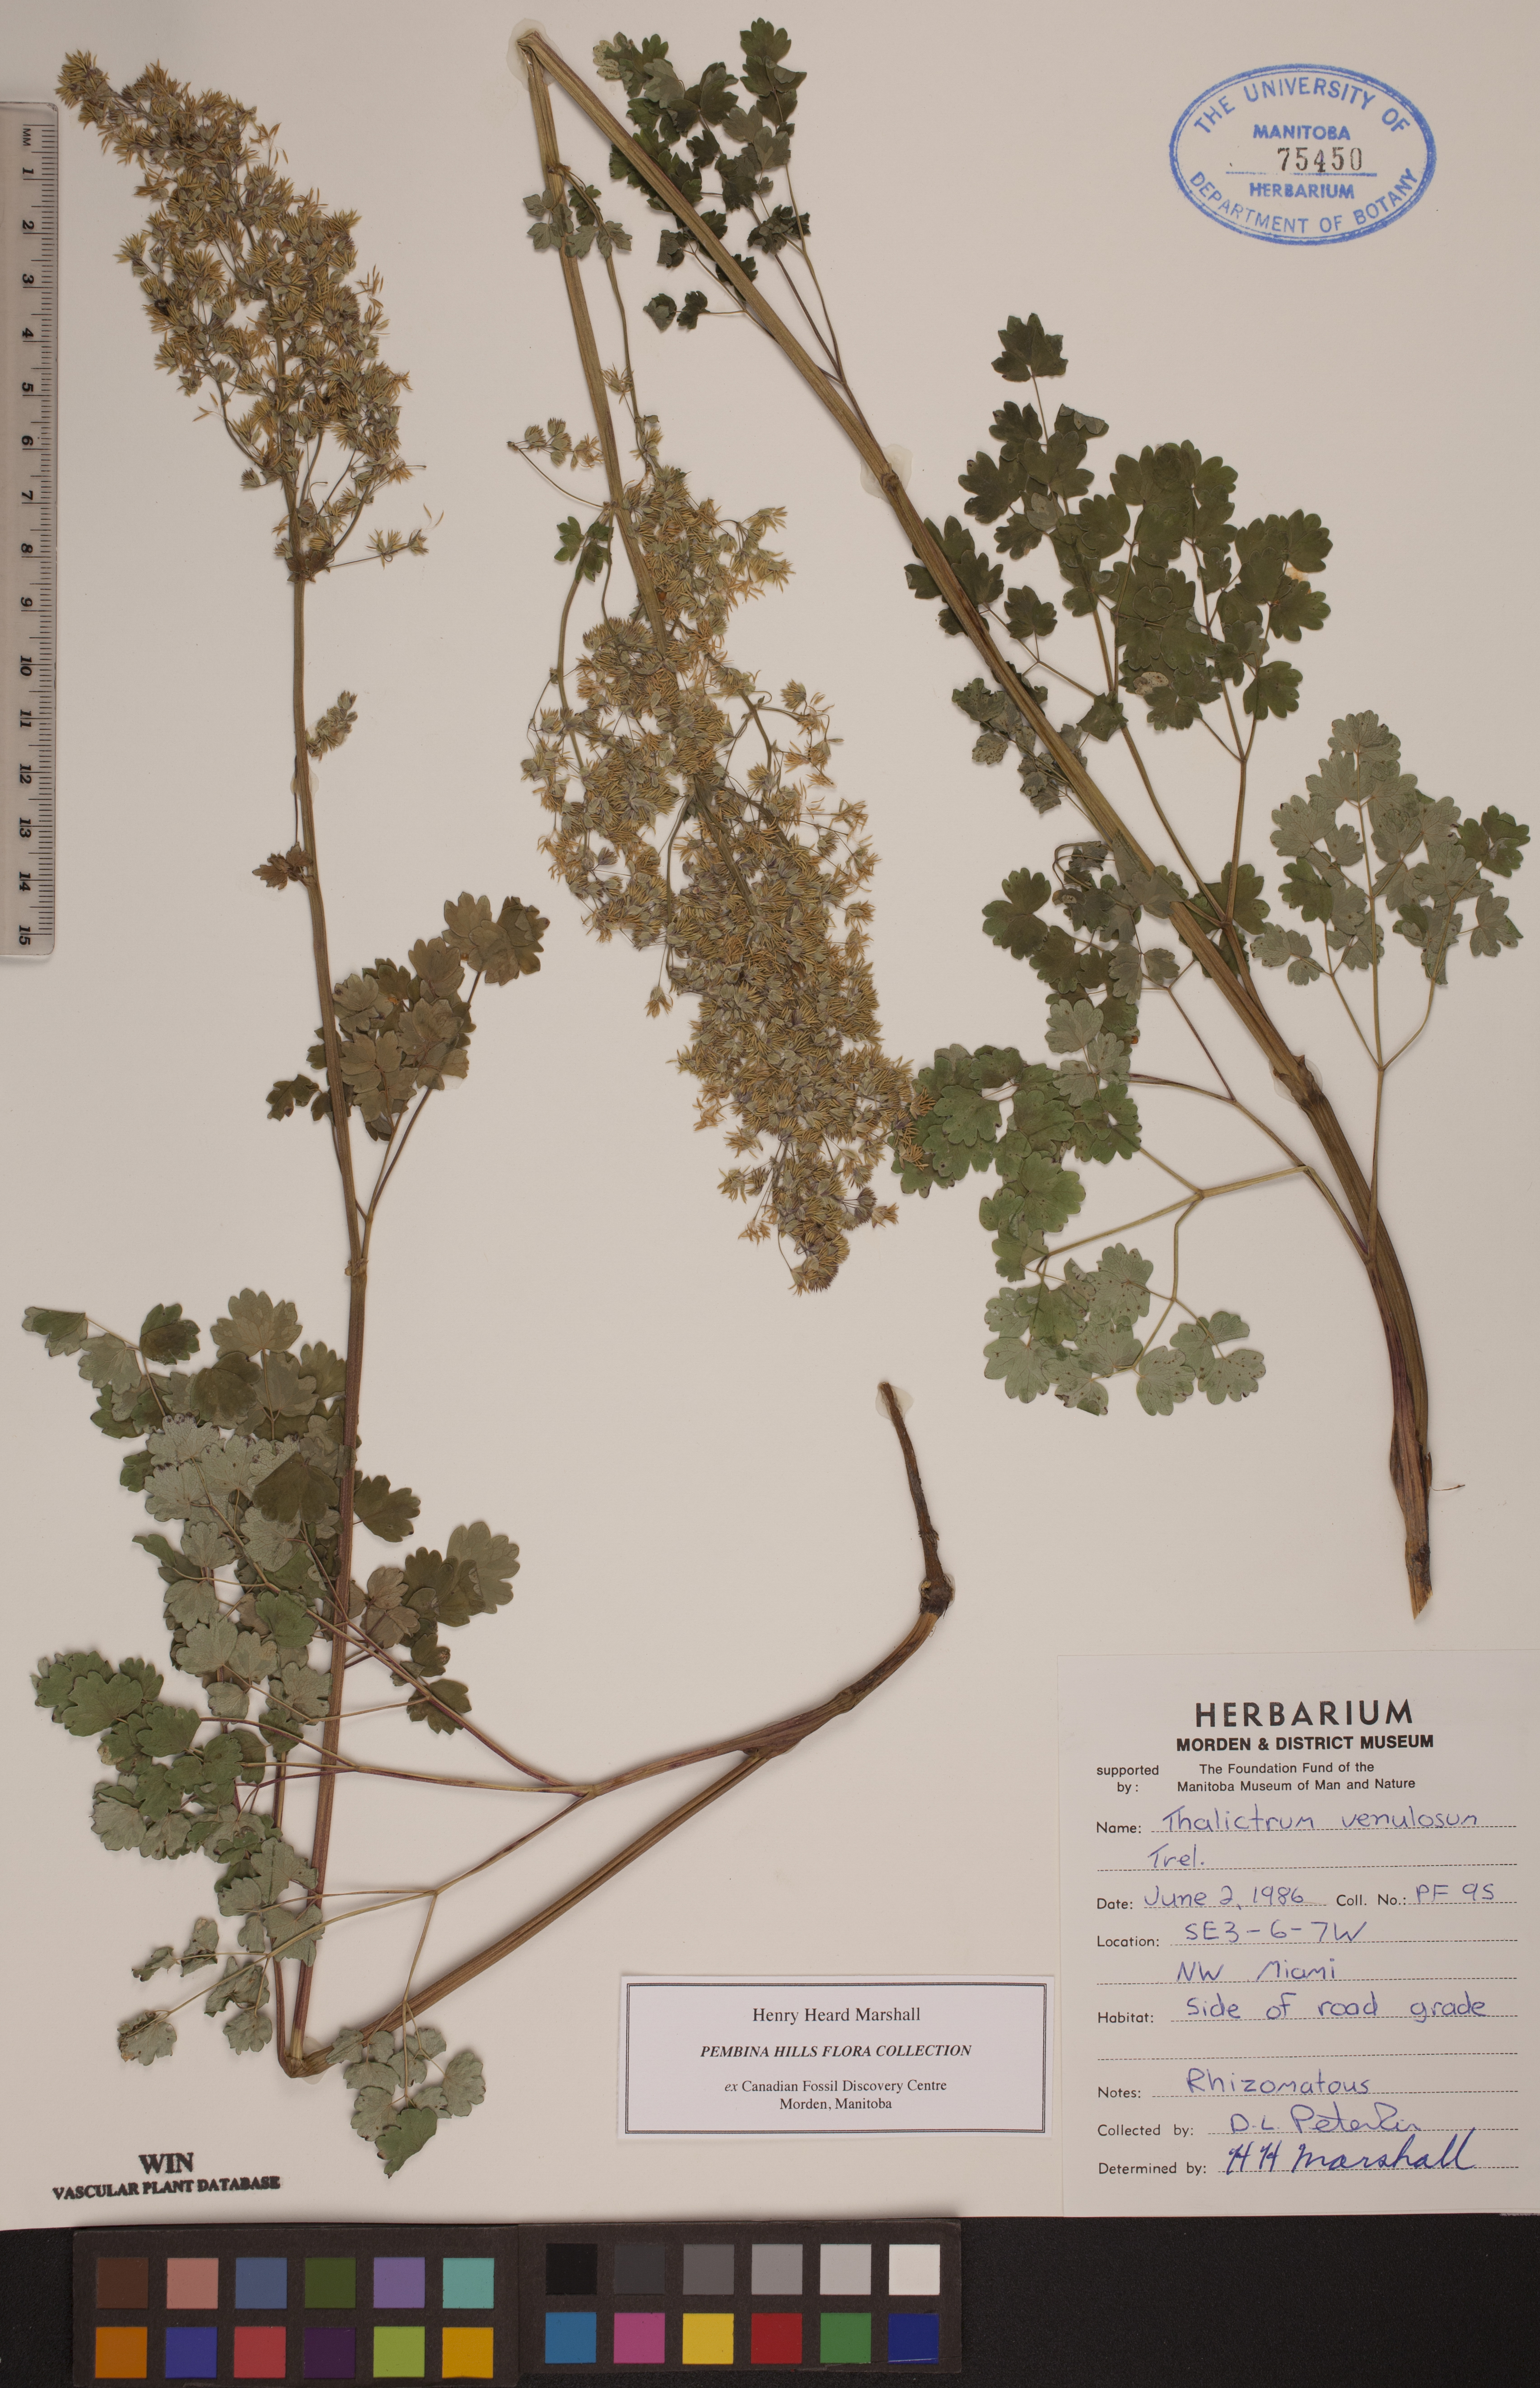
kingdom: Plantae
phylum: Tracheophyta
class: Magnoliopsida
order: Ranunculales
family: Ranunculaceae
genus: Thalictrum
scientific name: Thalictrum venulosum
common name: Early meadow-rue
